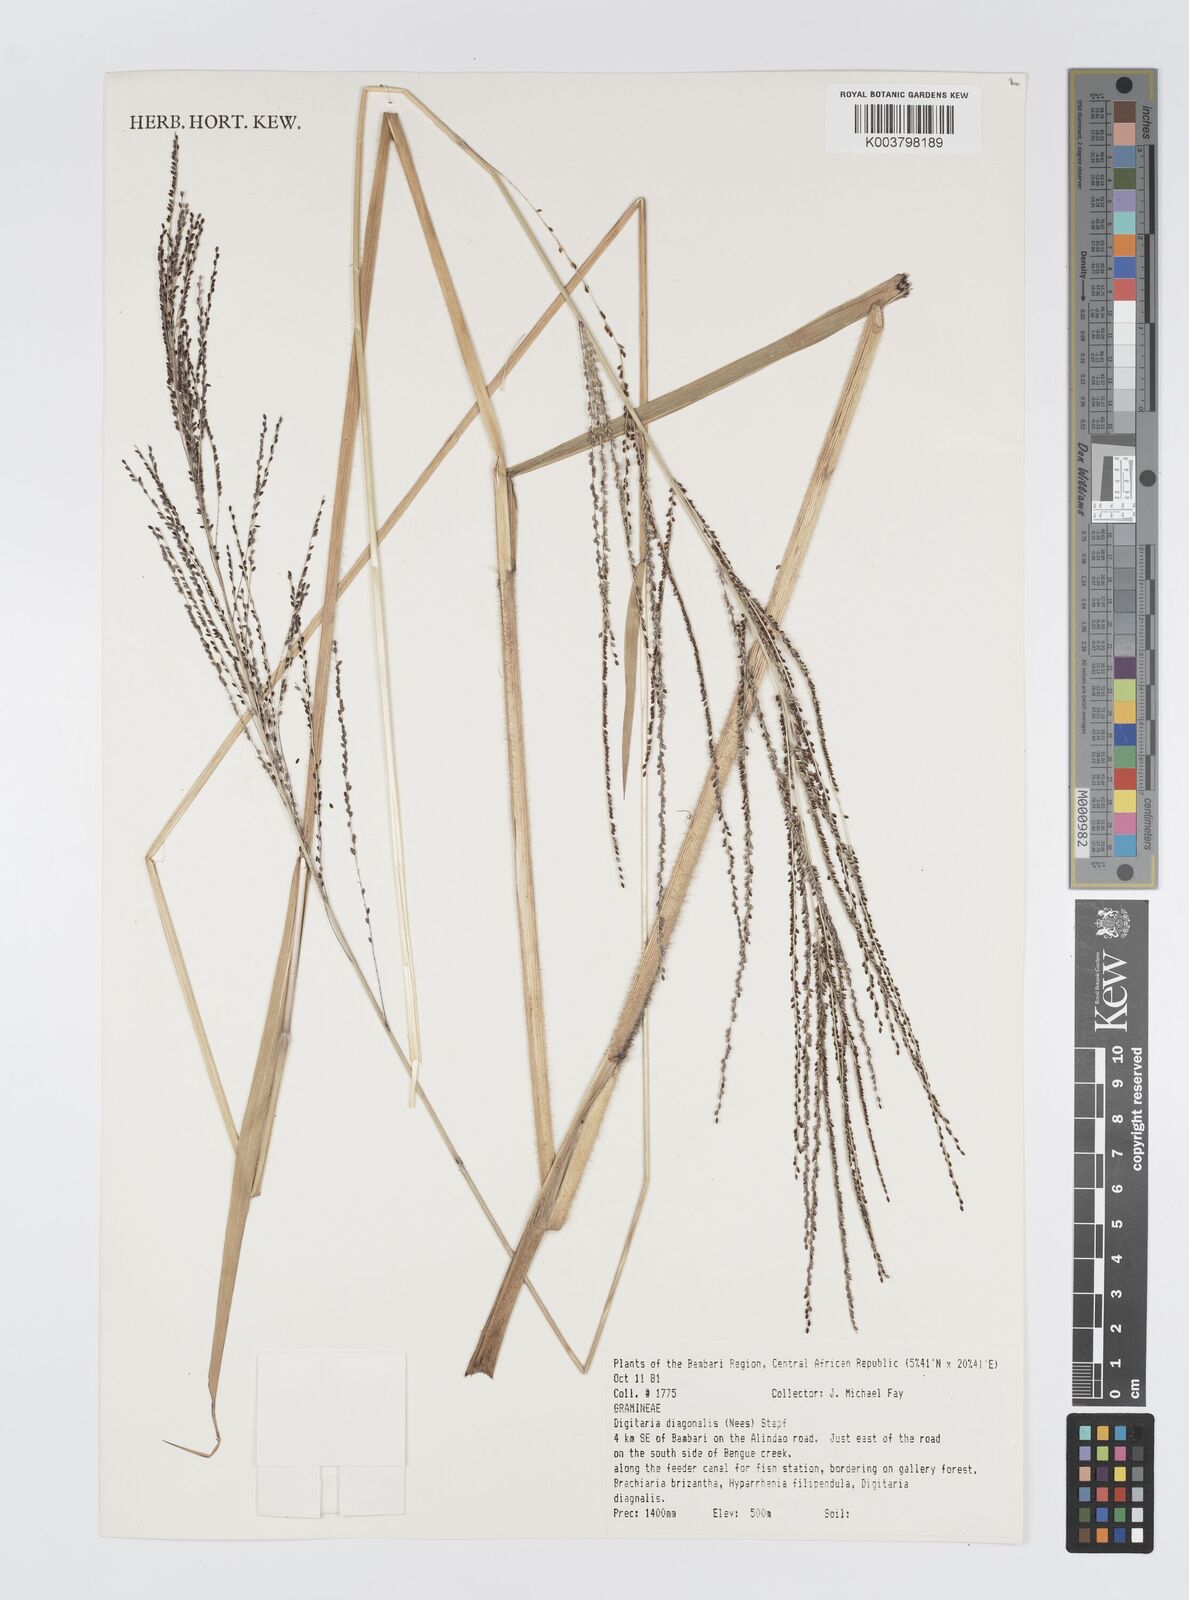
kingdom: Plantae
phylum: Tracheophyta
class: Liliopsida
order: Poales
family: Poaceae
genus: Digitaria
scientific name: Digitaria diagonalis
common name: Brown-seed finger grass
